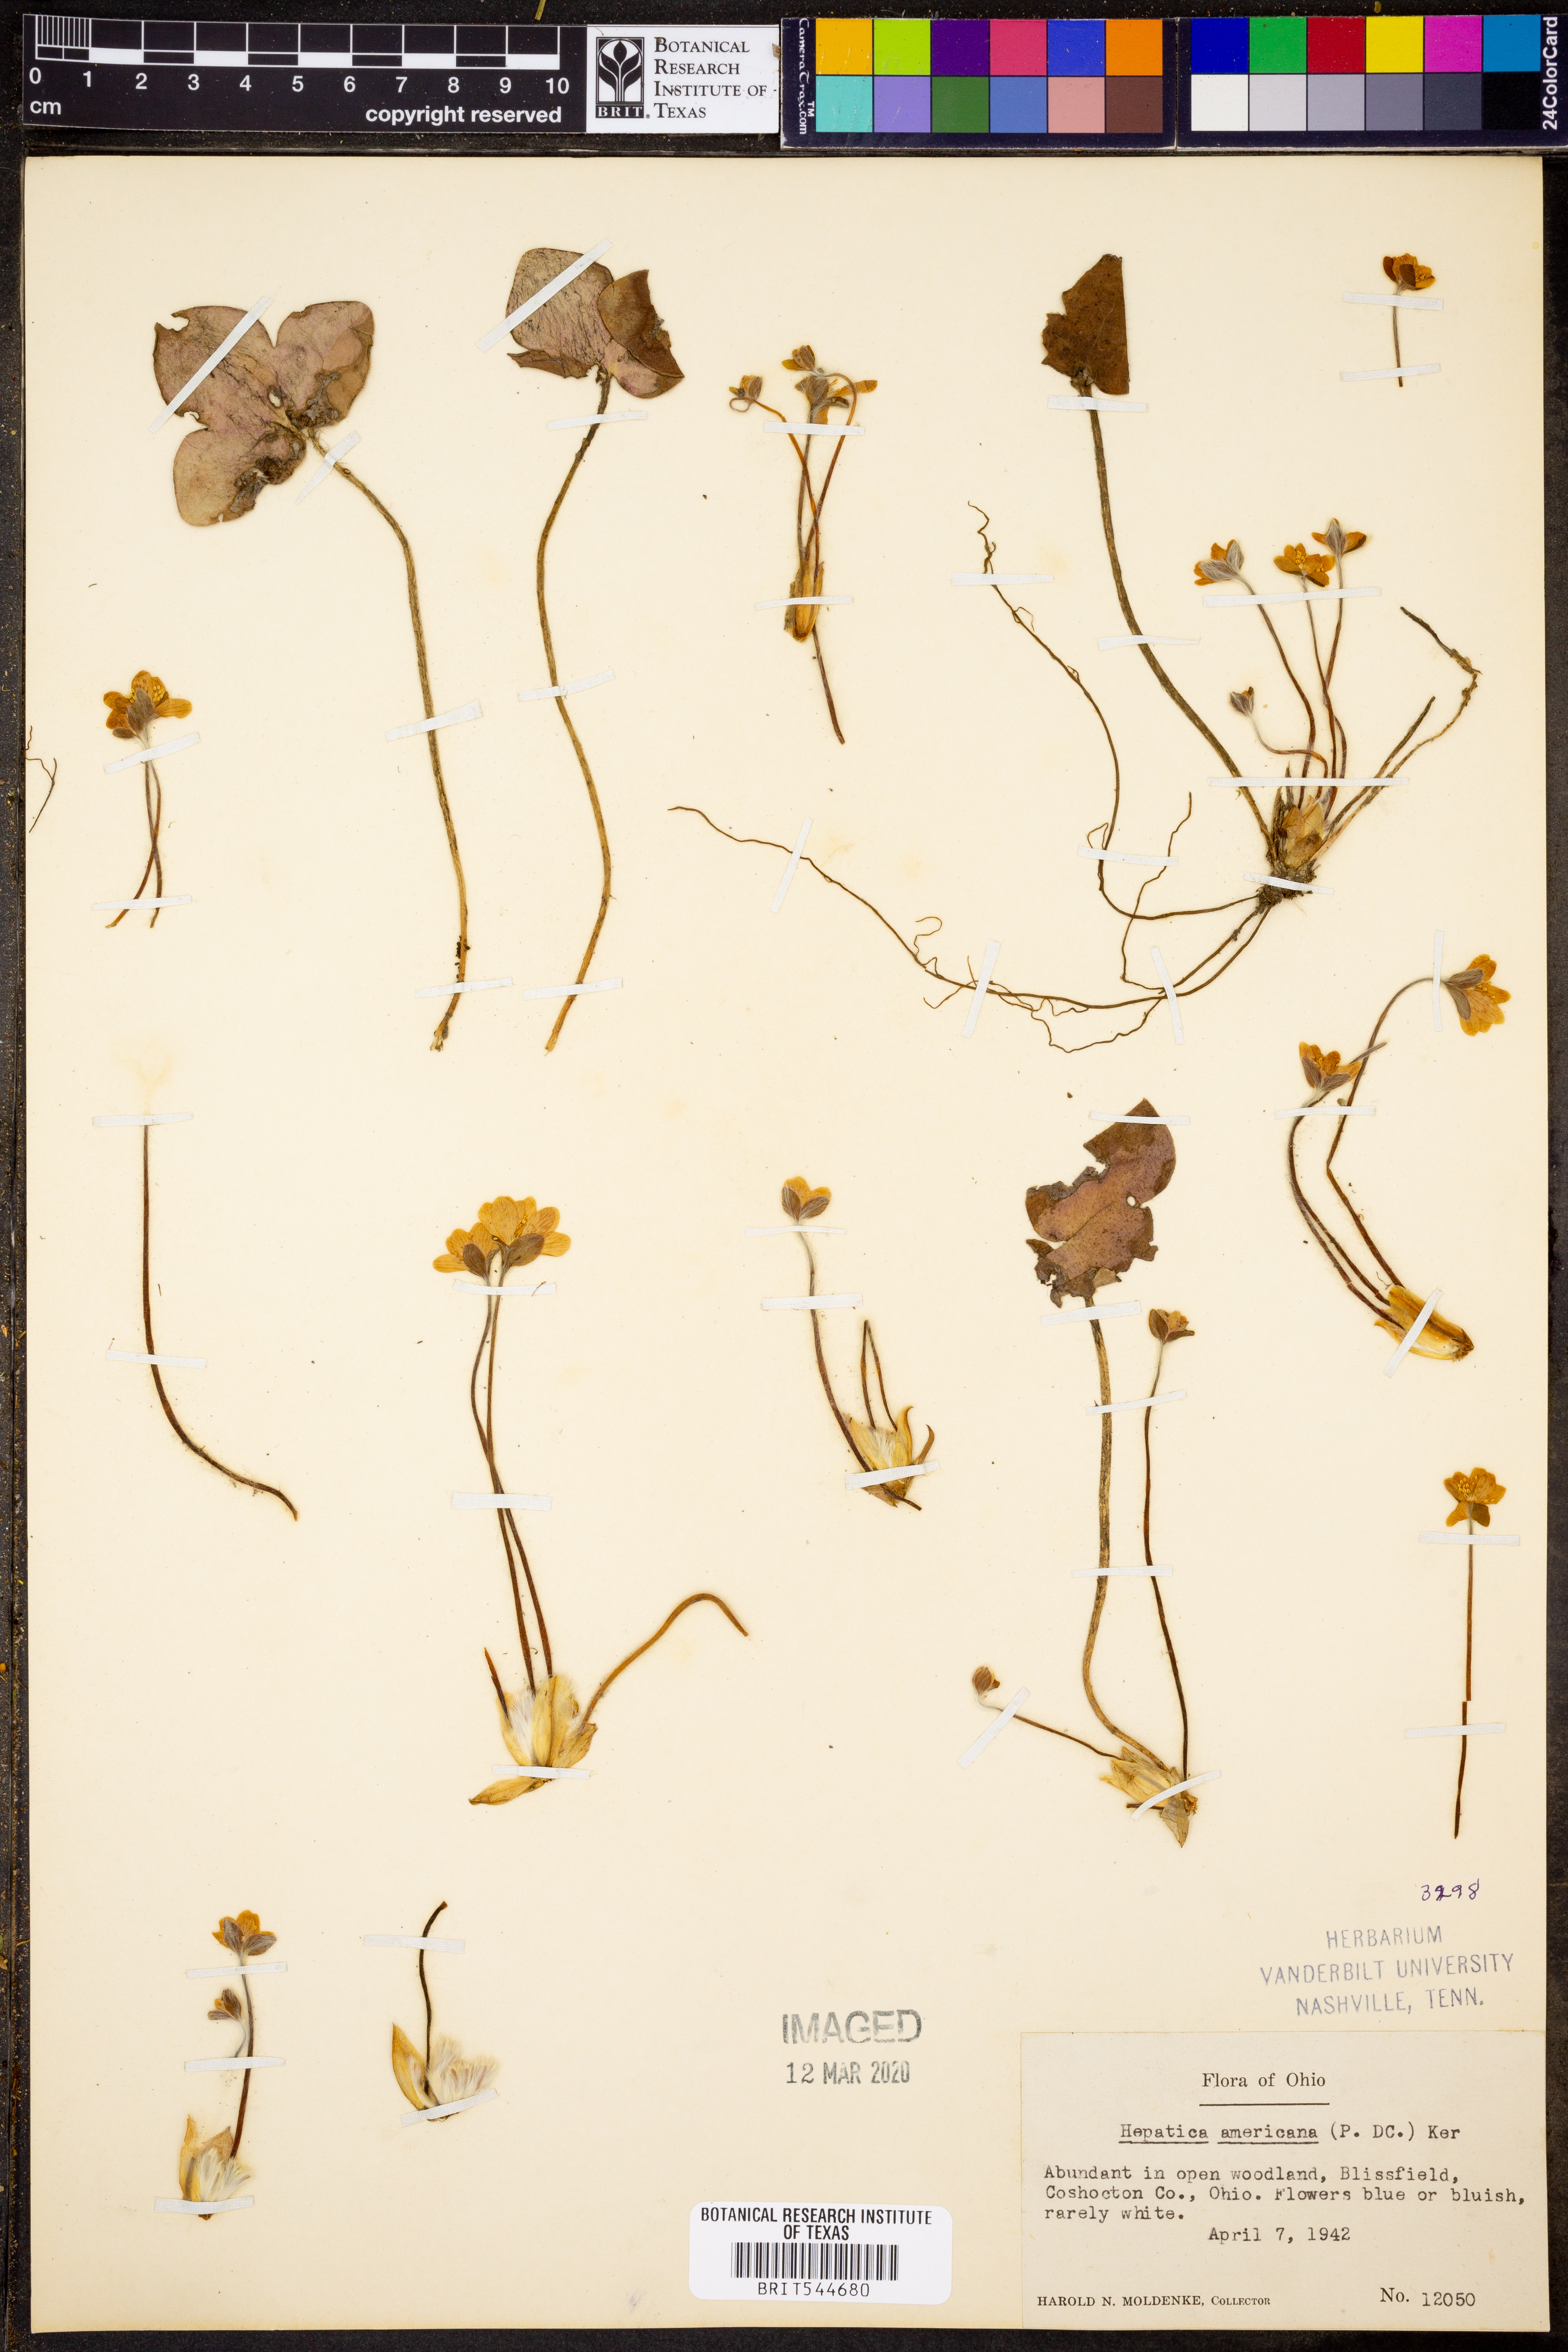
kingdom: Plantae
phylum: Tracheophyta
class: Magnoliopsida
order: Ranunculales
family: Ranunculaceae
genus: Hepatica
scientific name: Hepatica americana
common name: American hepatica
